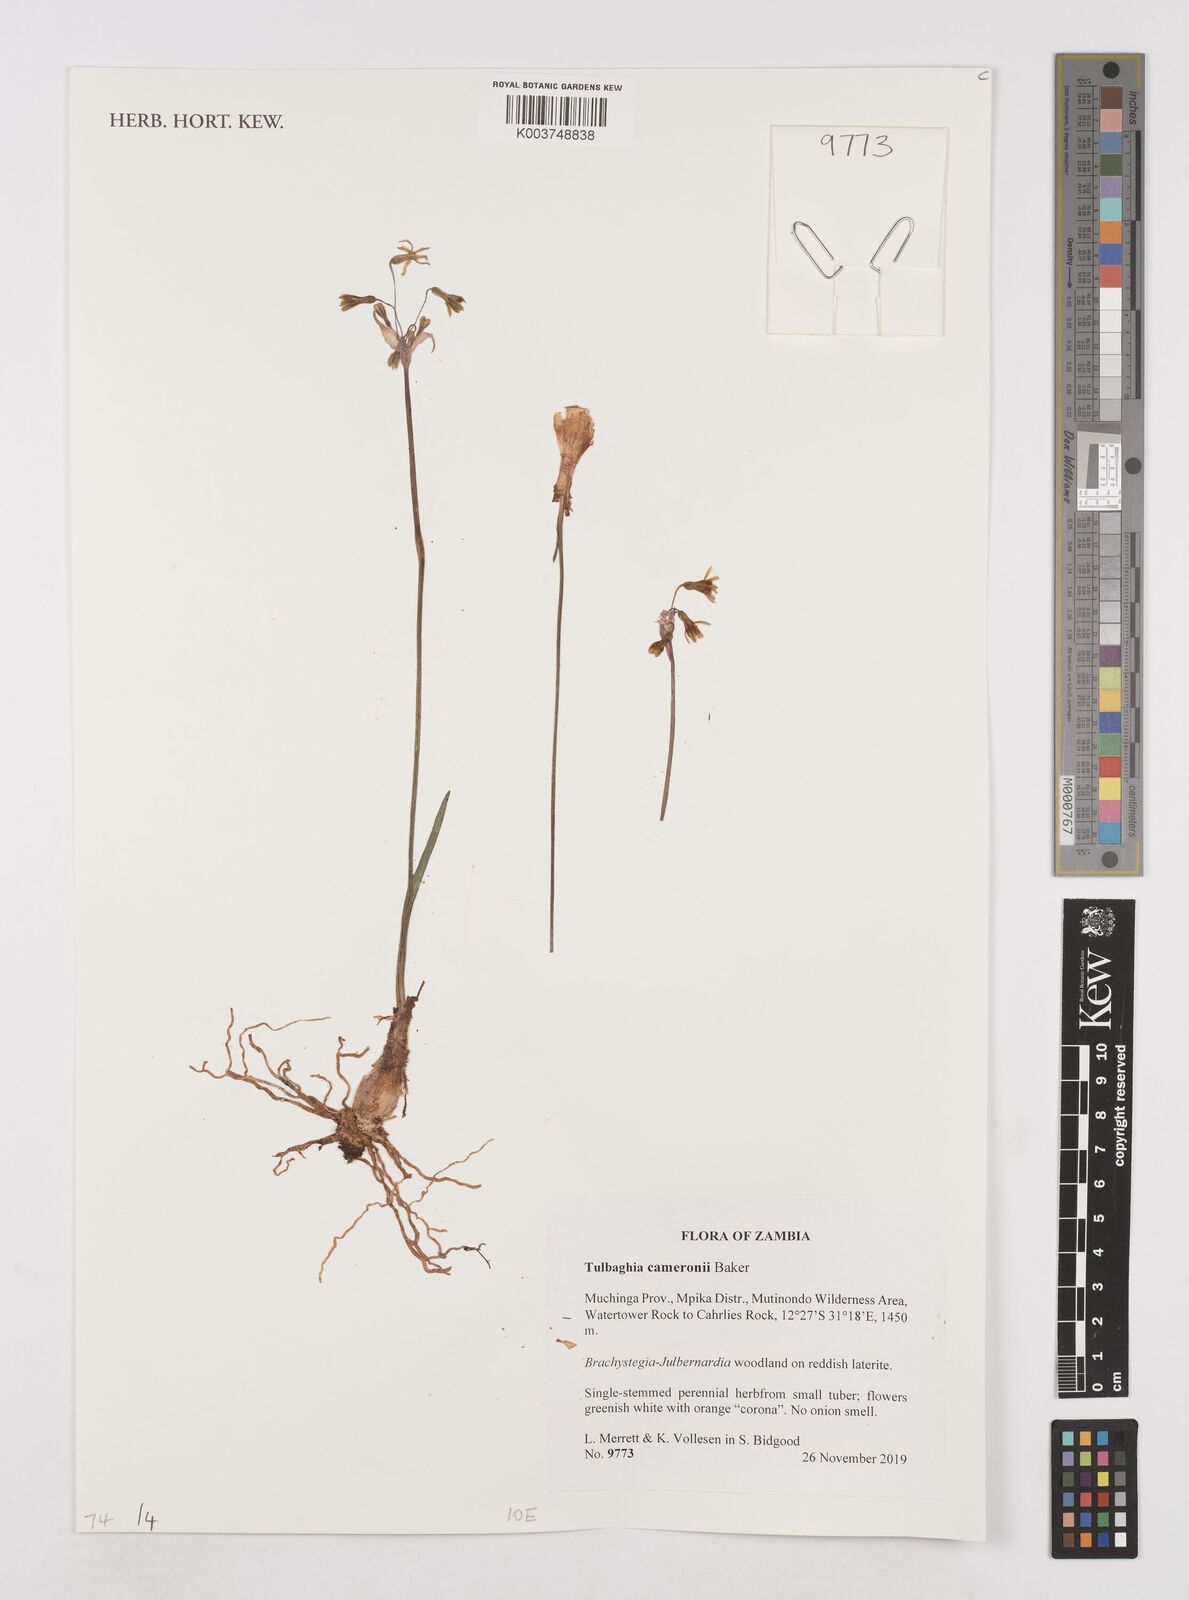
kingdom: Plantae
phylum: Tracheophyta
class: Liliopsida
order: Asparagales
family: Amaryllidaceae
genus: Tulbaghia
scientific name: Tulbaghia cameronii
